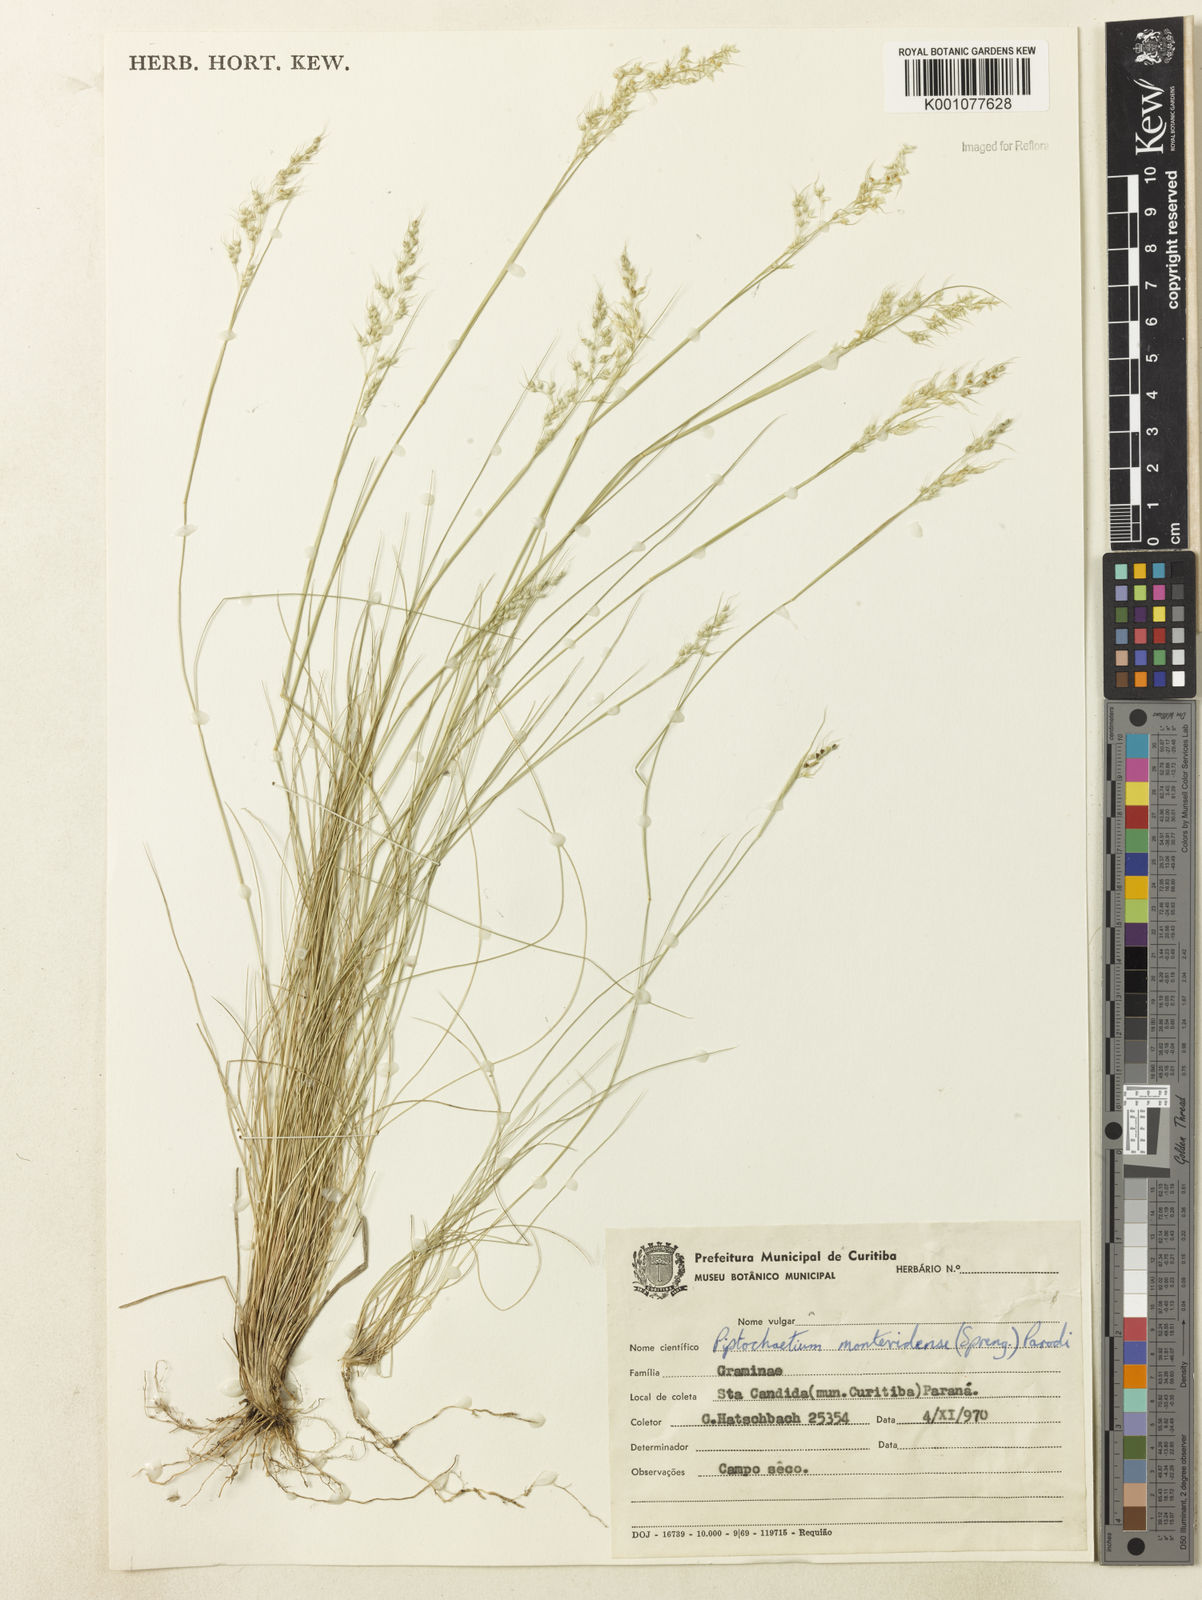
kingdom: Plantae
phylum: Tracheophyta
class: Liliopsida
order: Poales
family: Poaceae
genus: Piptochaetium
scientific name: Piptochaetium montevidense
